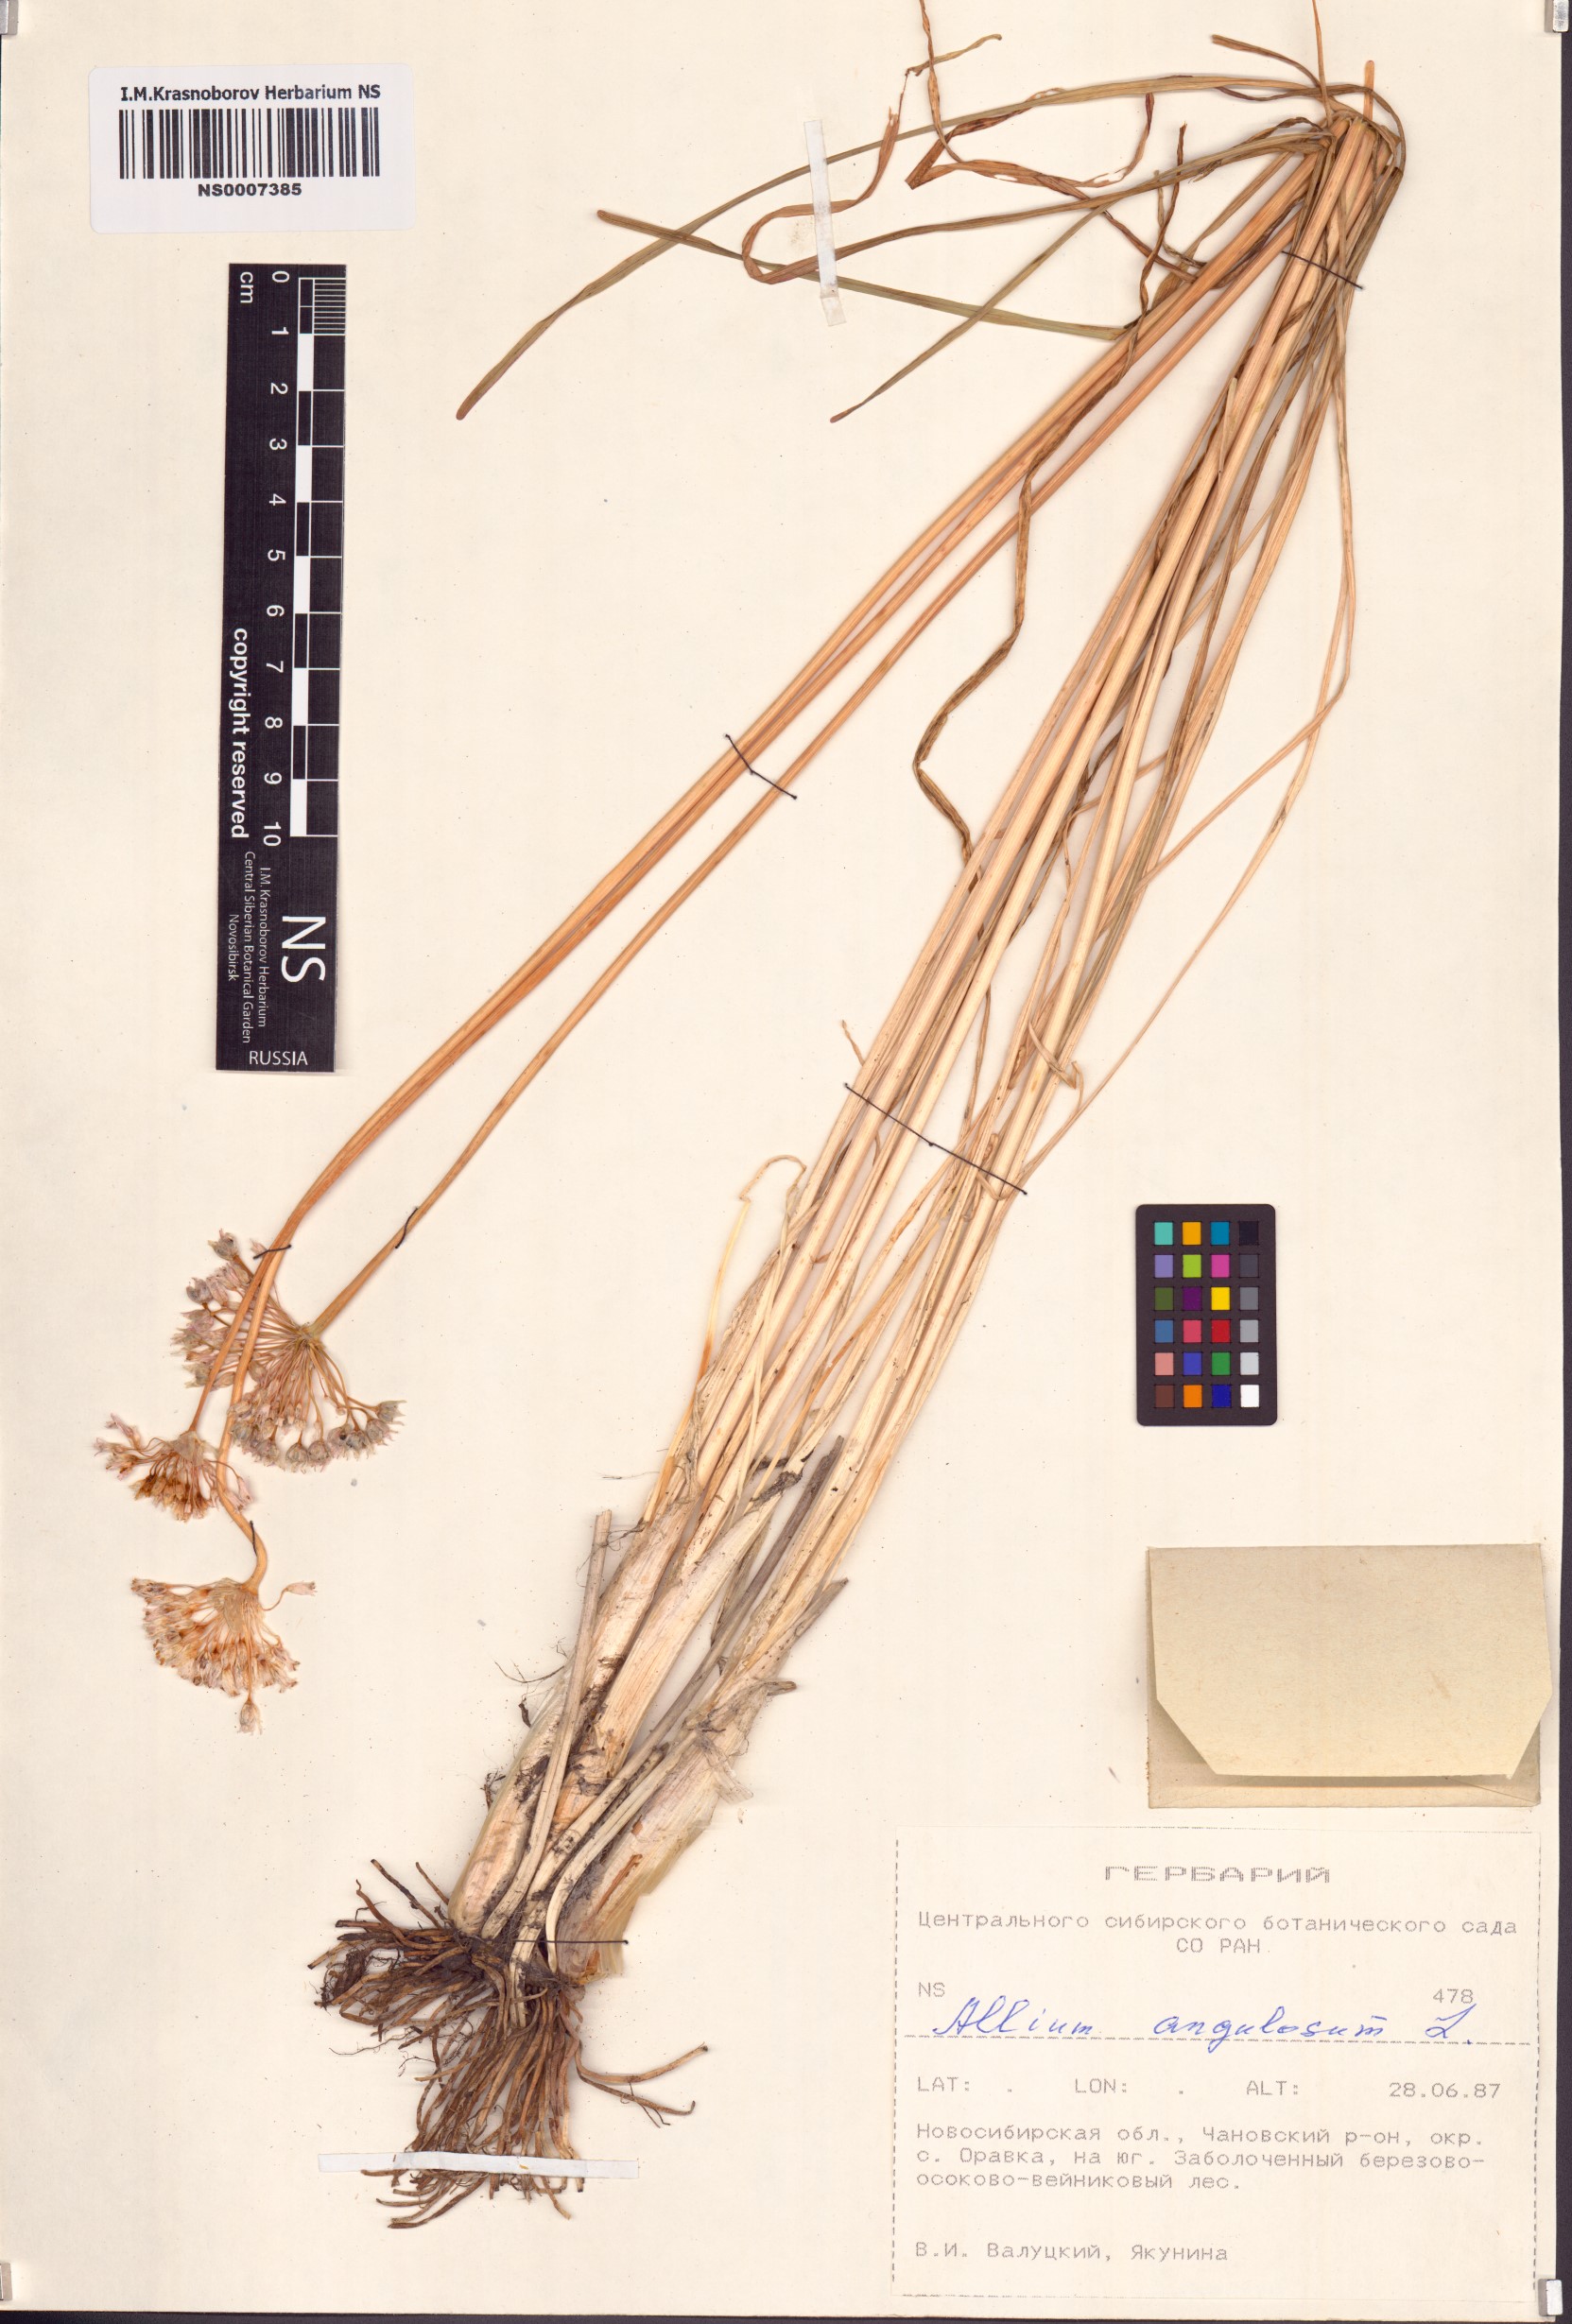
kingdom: Plantae
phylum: Tracheophyta
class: Liliopsida
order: Asparagales
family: Amaryllidaceae
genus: Allium
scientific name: Allium angulosum
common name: Mouse garlic
